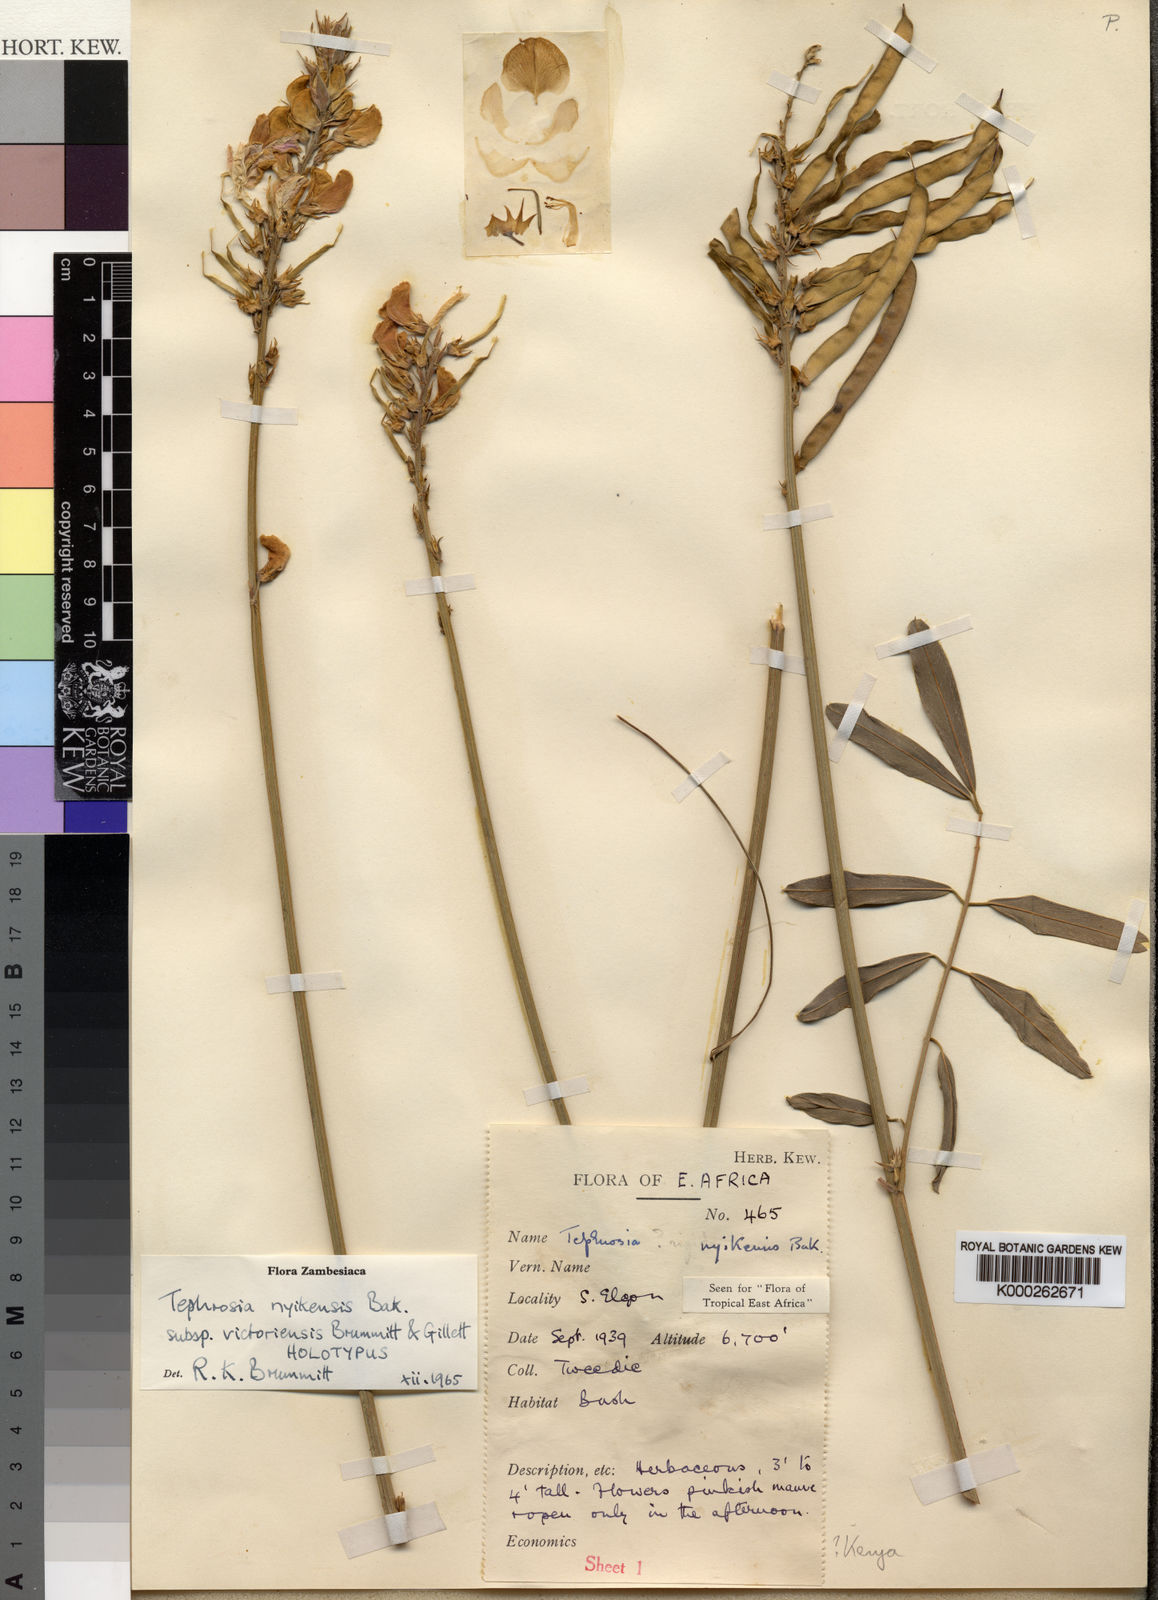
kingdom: Plantae
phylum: Tracheophyta
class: Magnoliopsida
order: Fabales
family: Fabaceae
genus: Tephrosia
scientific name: Tephrosia nyikensis
